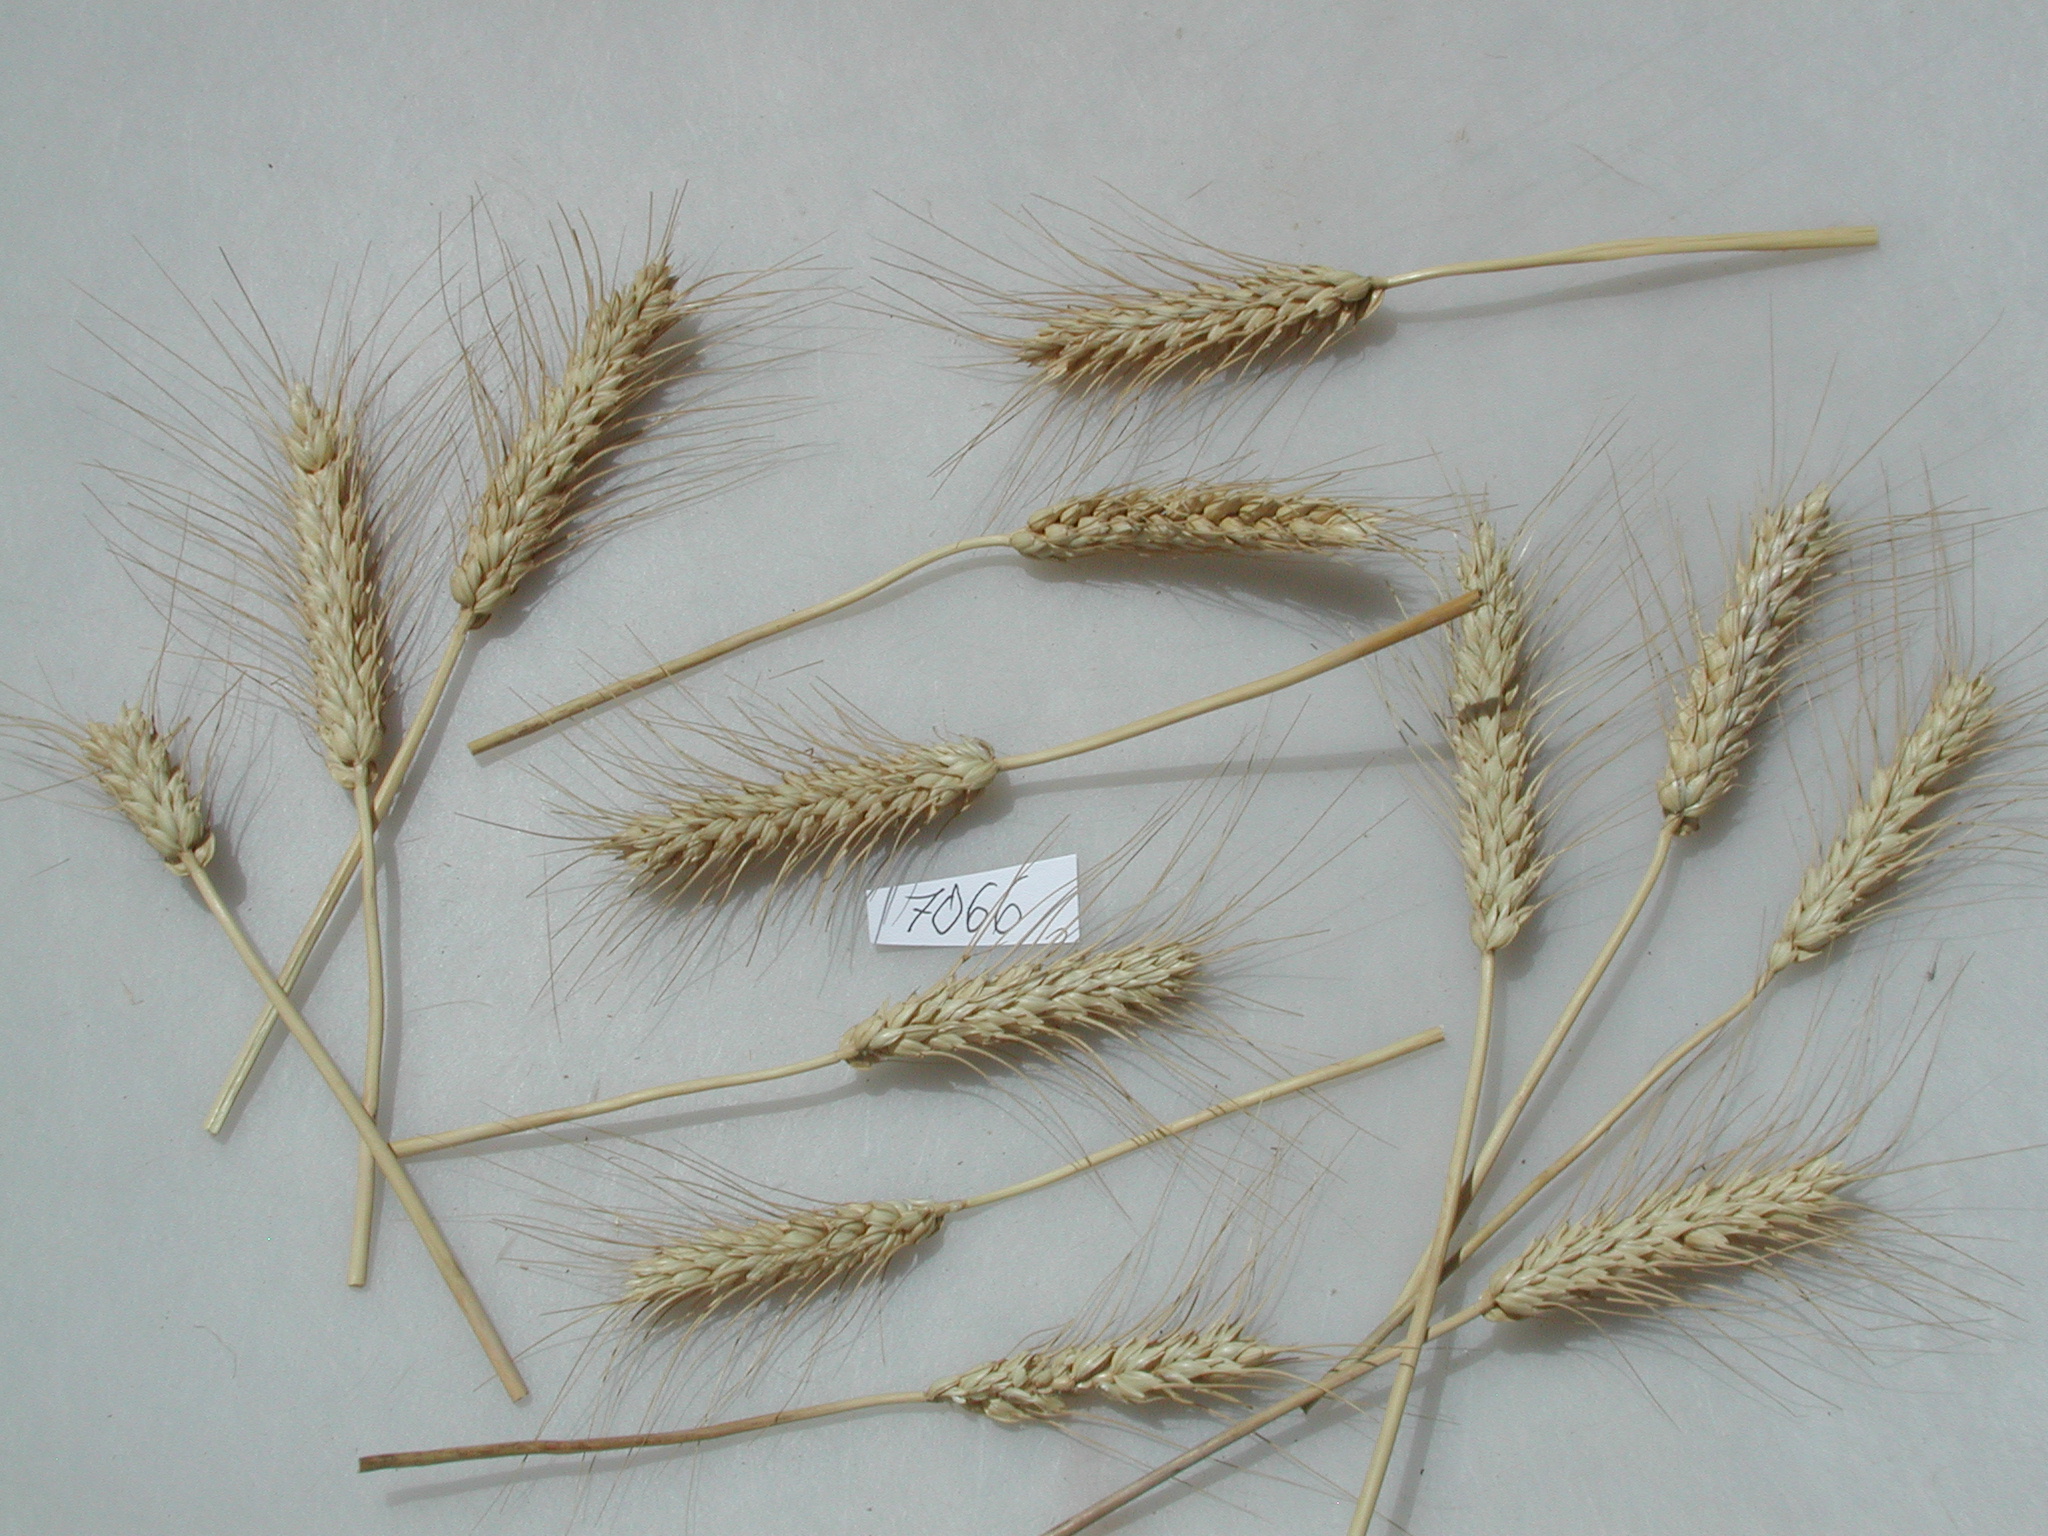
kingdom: Plantae
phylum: Tracheophyta
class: Liliopsida
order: Poales
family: Poaceae
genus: Triticum
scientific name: Triticum aestivum
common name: Wheat
